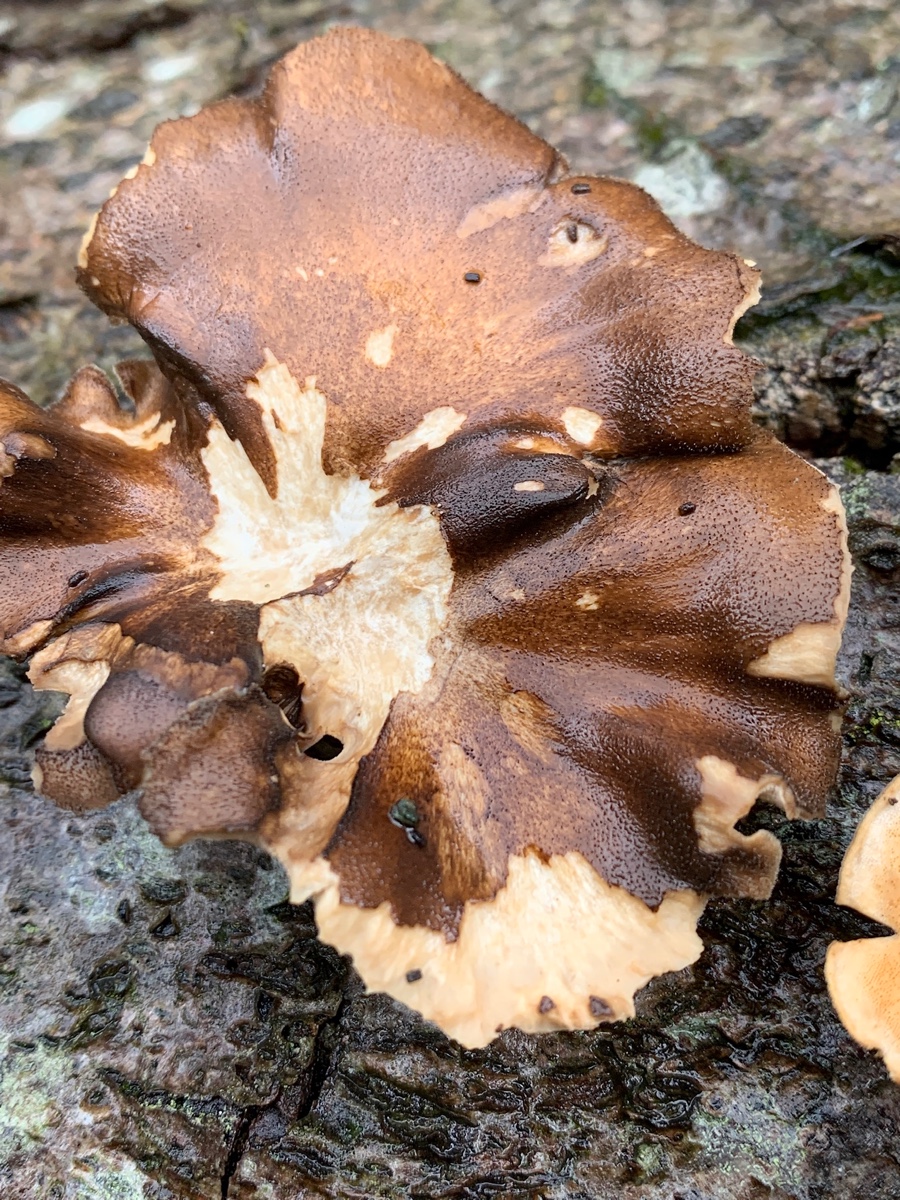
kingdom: Fungi
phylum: Basidiomycota
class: Agaricomycetes
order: Polyporales
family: Polyporaceae
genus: Picipes
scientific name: Picipes badius
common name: kastaniebrun stilkporesvamp
